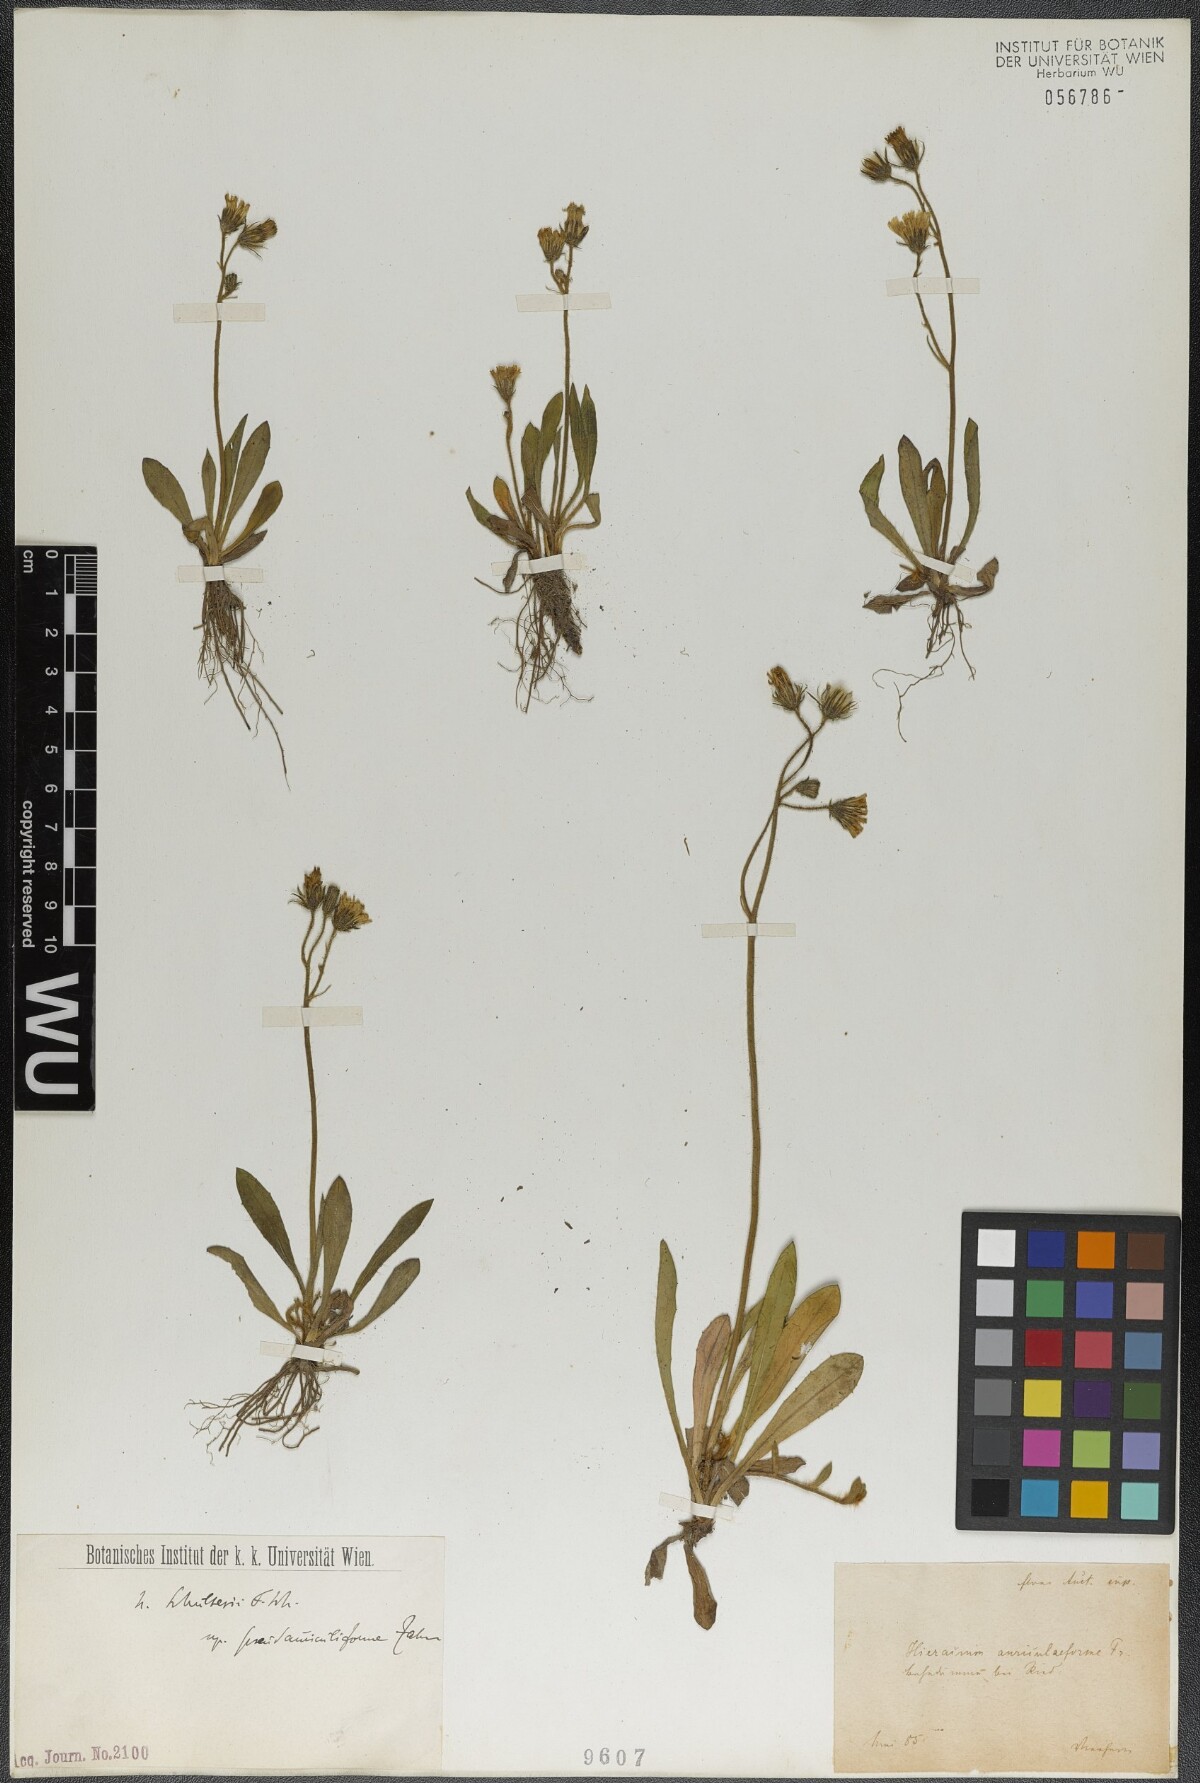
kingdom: Plantae
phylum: Tracheophyta
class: Magnoliopsida
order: Asterales
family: Asteraceae
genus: Pilosella
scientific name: Pilosella schultesii
